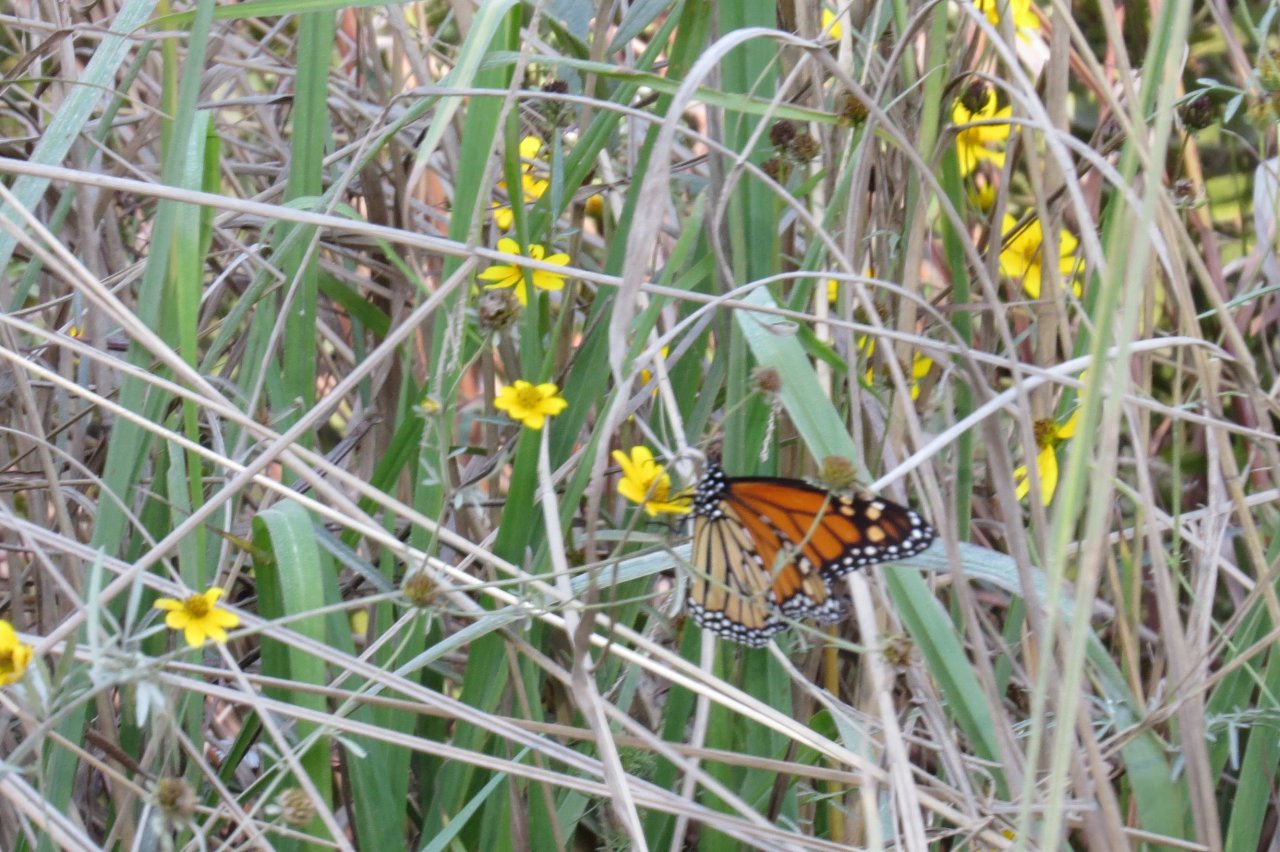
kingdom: Animalia
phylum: Arthropoda
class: Insecta
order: Lepidoptera
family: Nymphalidae
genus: Danaus
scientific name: Danaus plexippus
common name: Monarch
